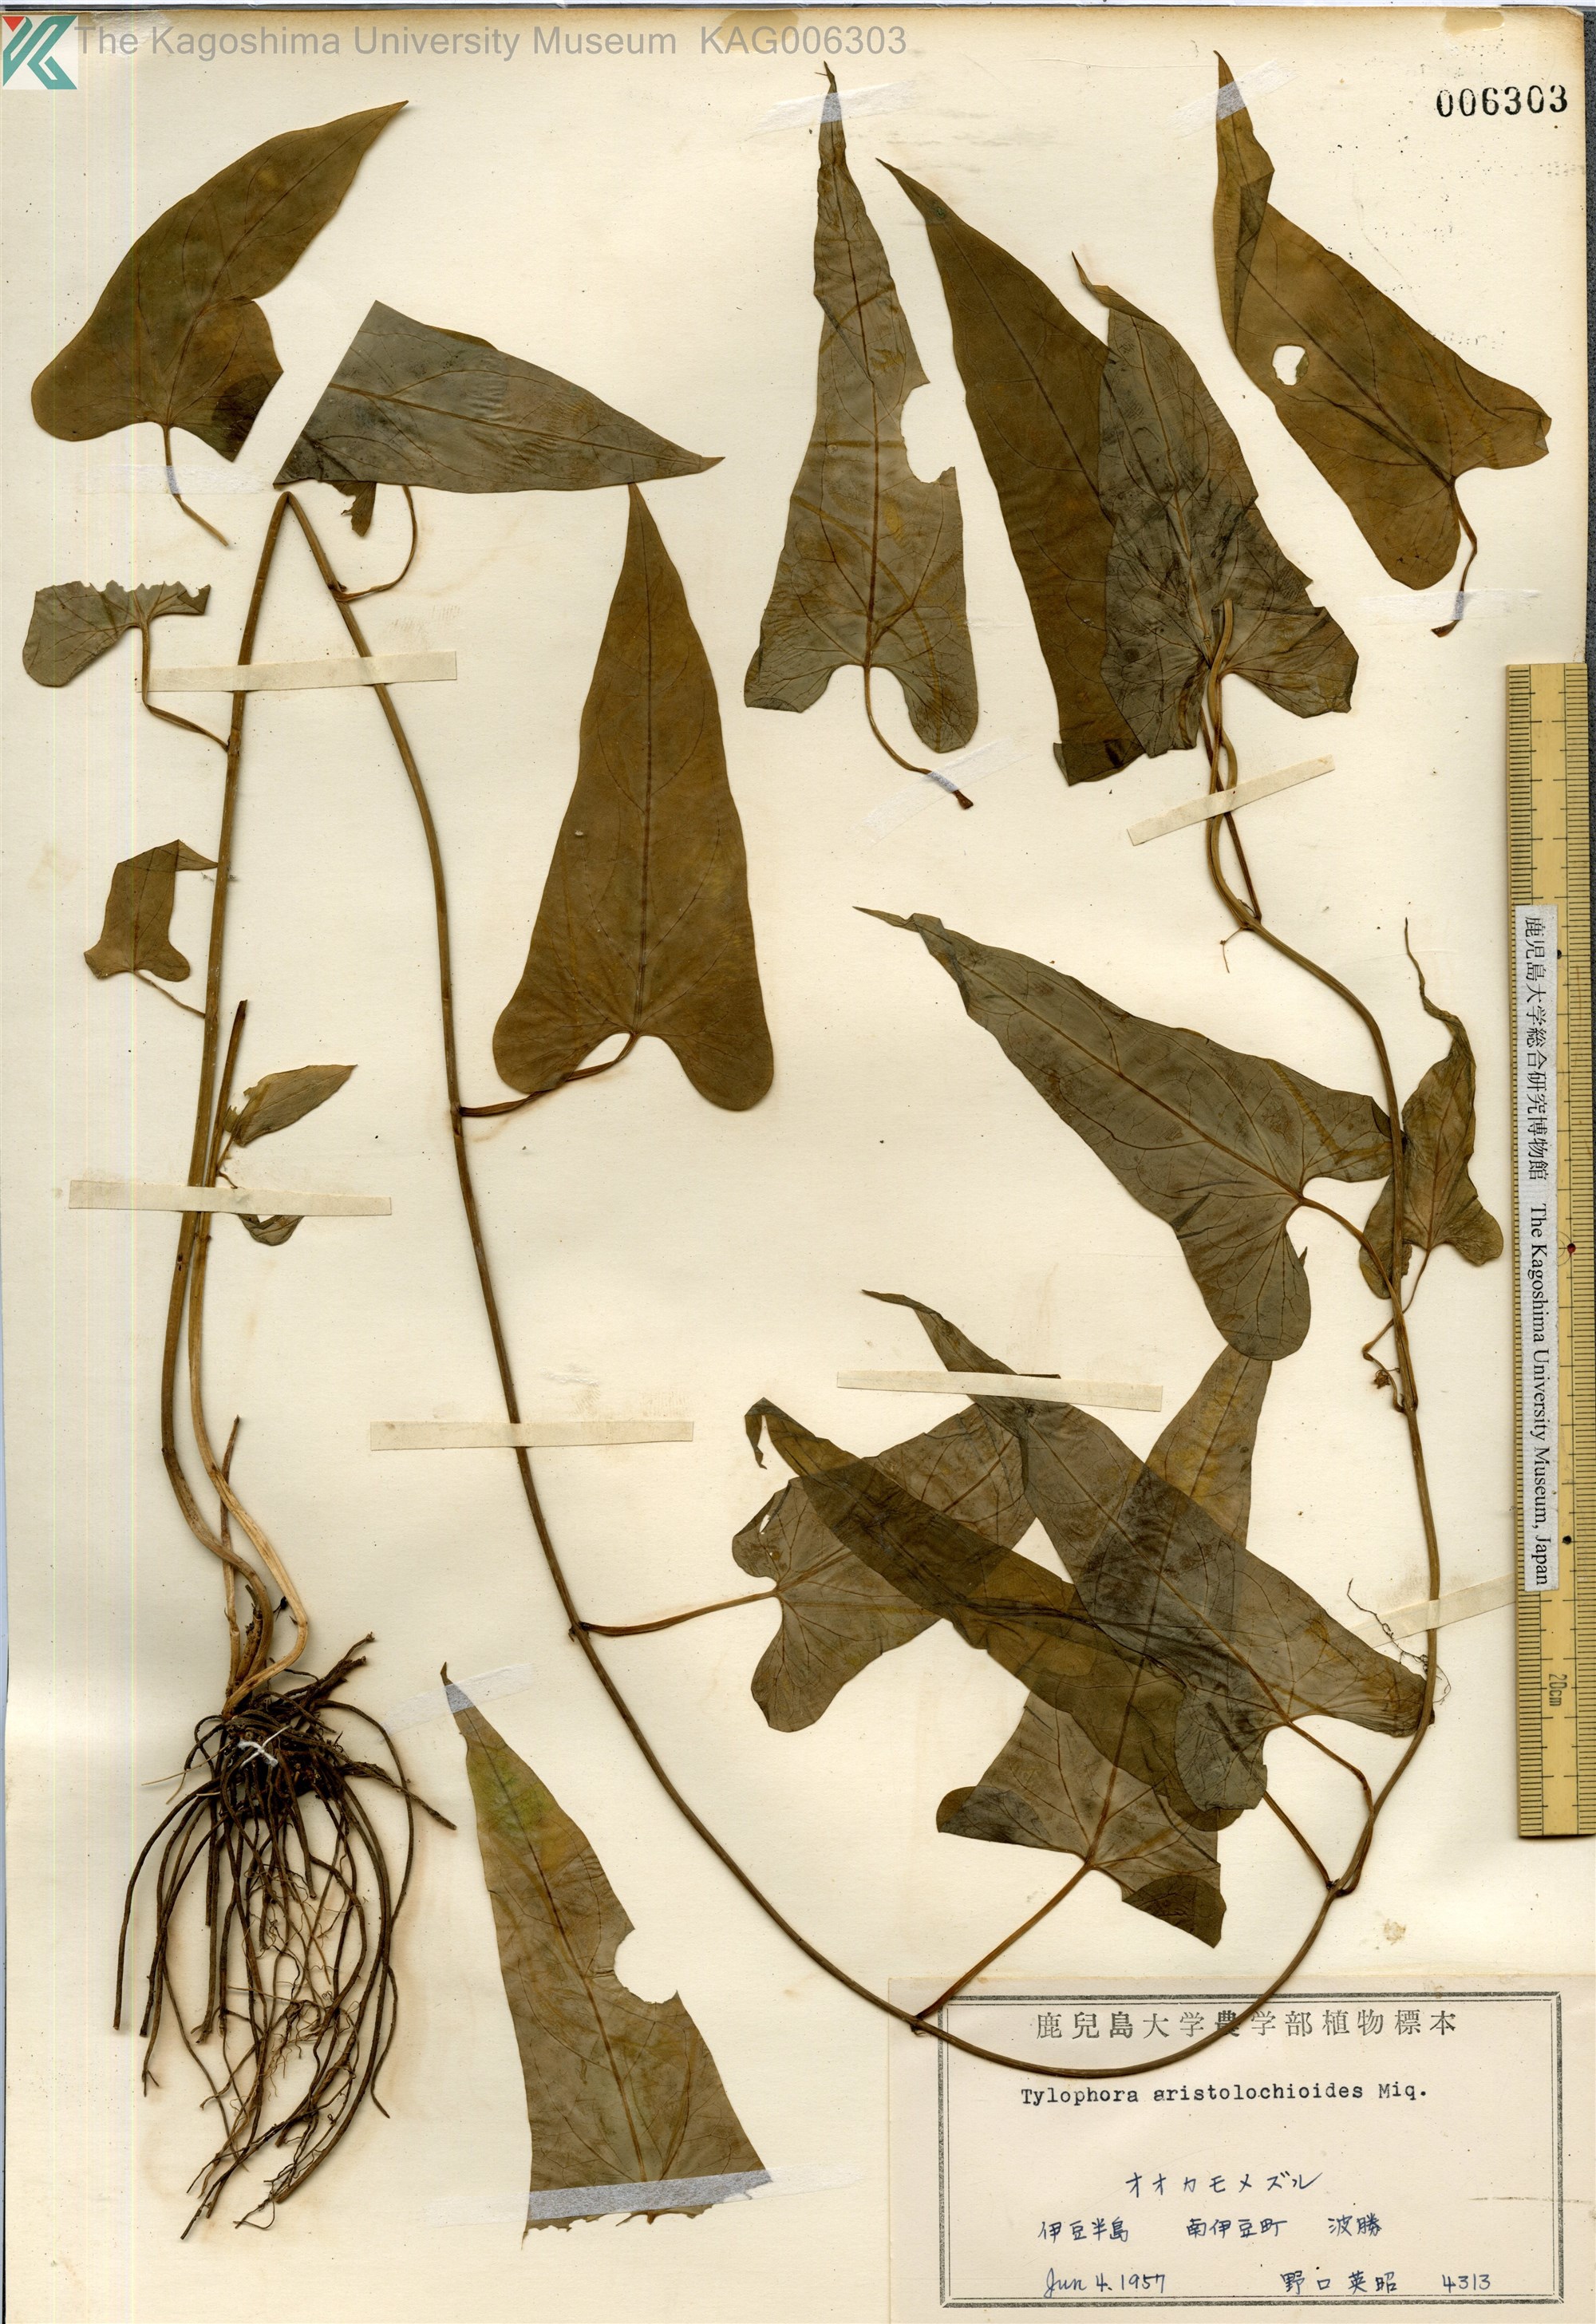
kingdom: Plantae
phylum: Tracheophyta
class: Magnoliopsida
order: Gentianales
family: Apocynaceae
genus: Vincetoxicum
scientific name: Vincetoxicum aristolochioides
